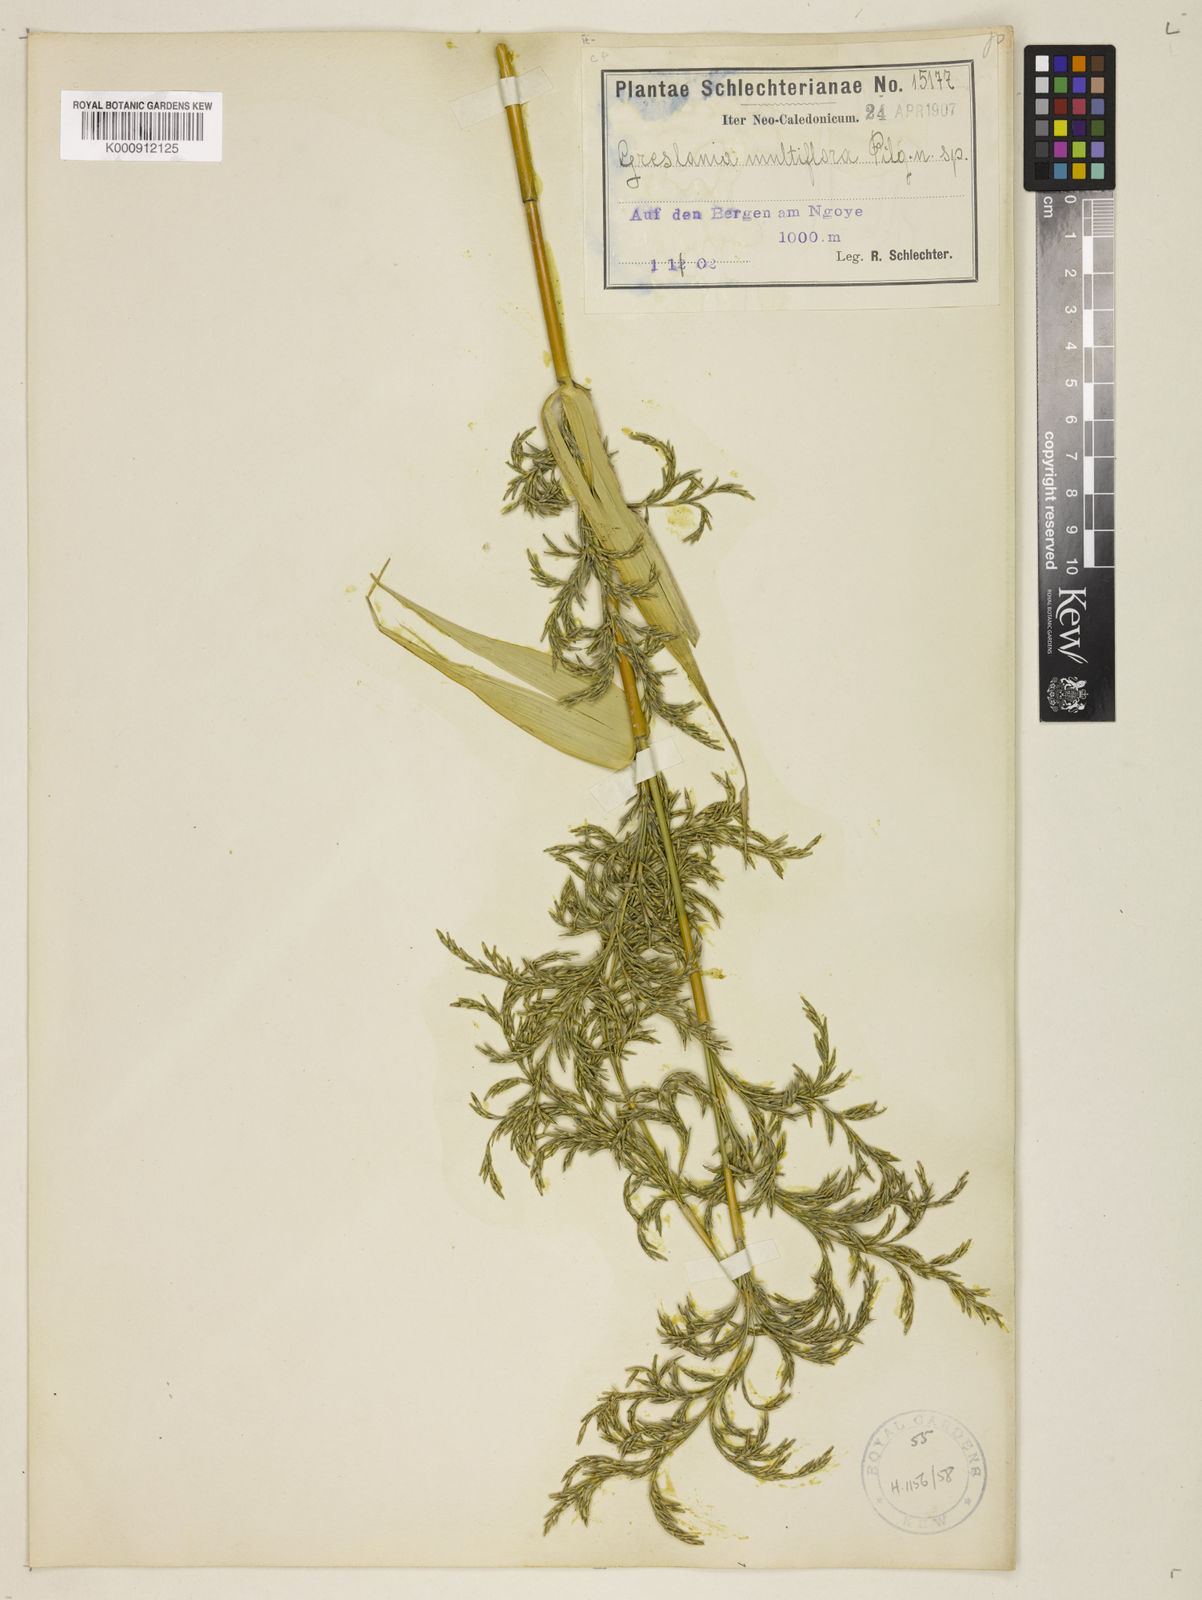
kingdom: Plantae
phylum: Tracheophyta
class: Liliopsida
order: Poales
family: Poaceae
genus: Greslania
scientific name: Greslania circinata
